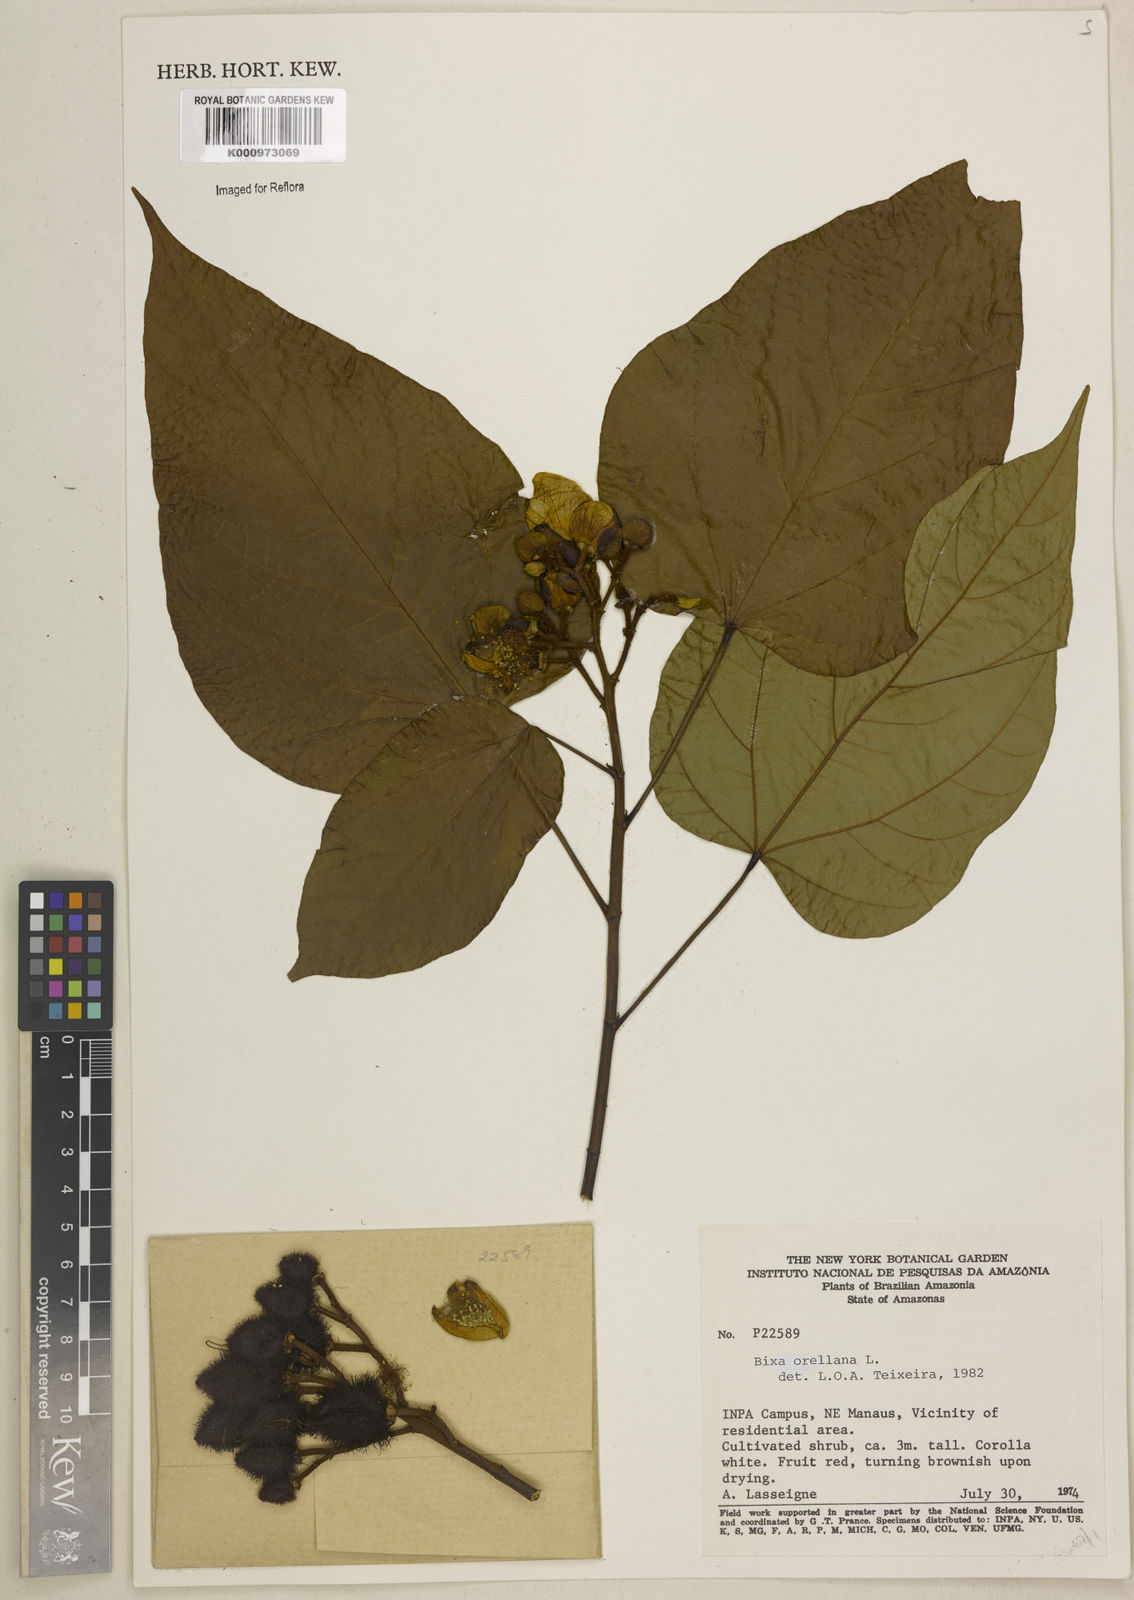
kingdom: Plantae
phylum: Tracheophyta
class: Magnoliopsida
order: Malvales
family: Bixaceae
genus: Bixa
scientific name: Bixa orellana
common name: Lipsticktree
